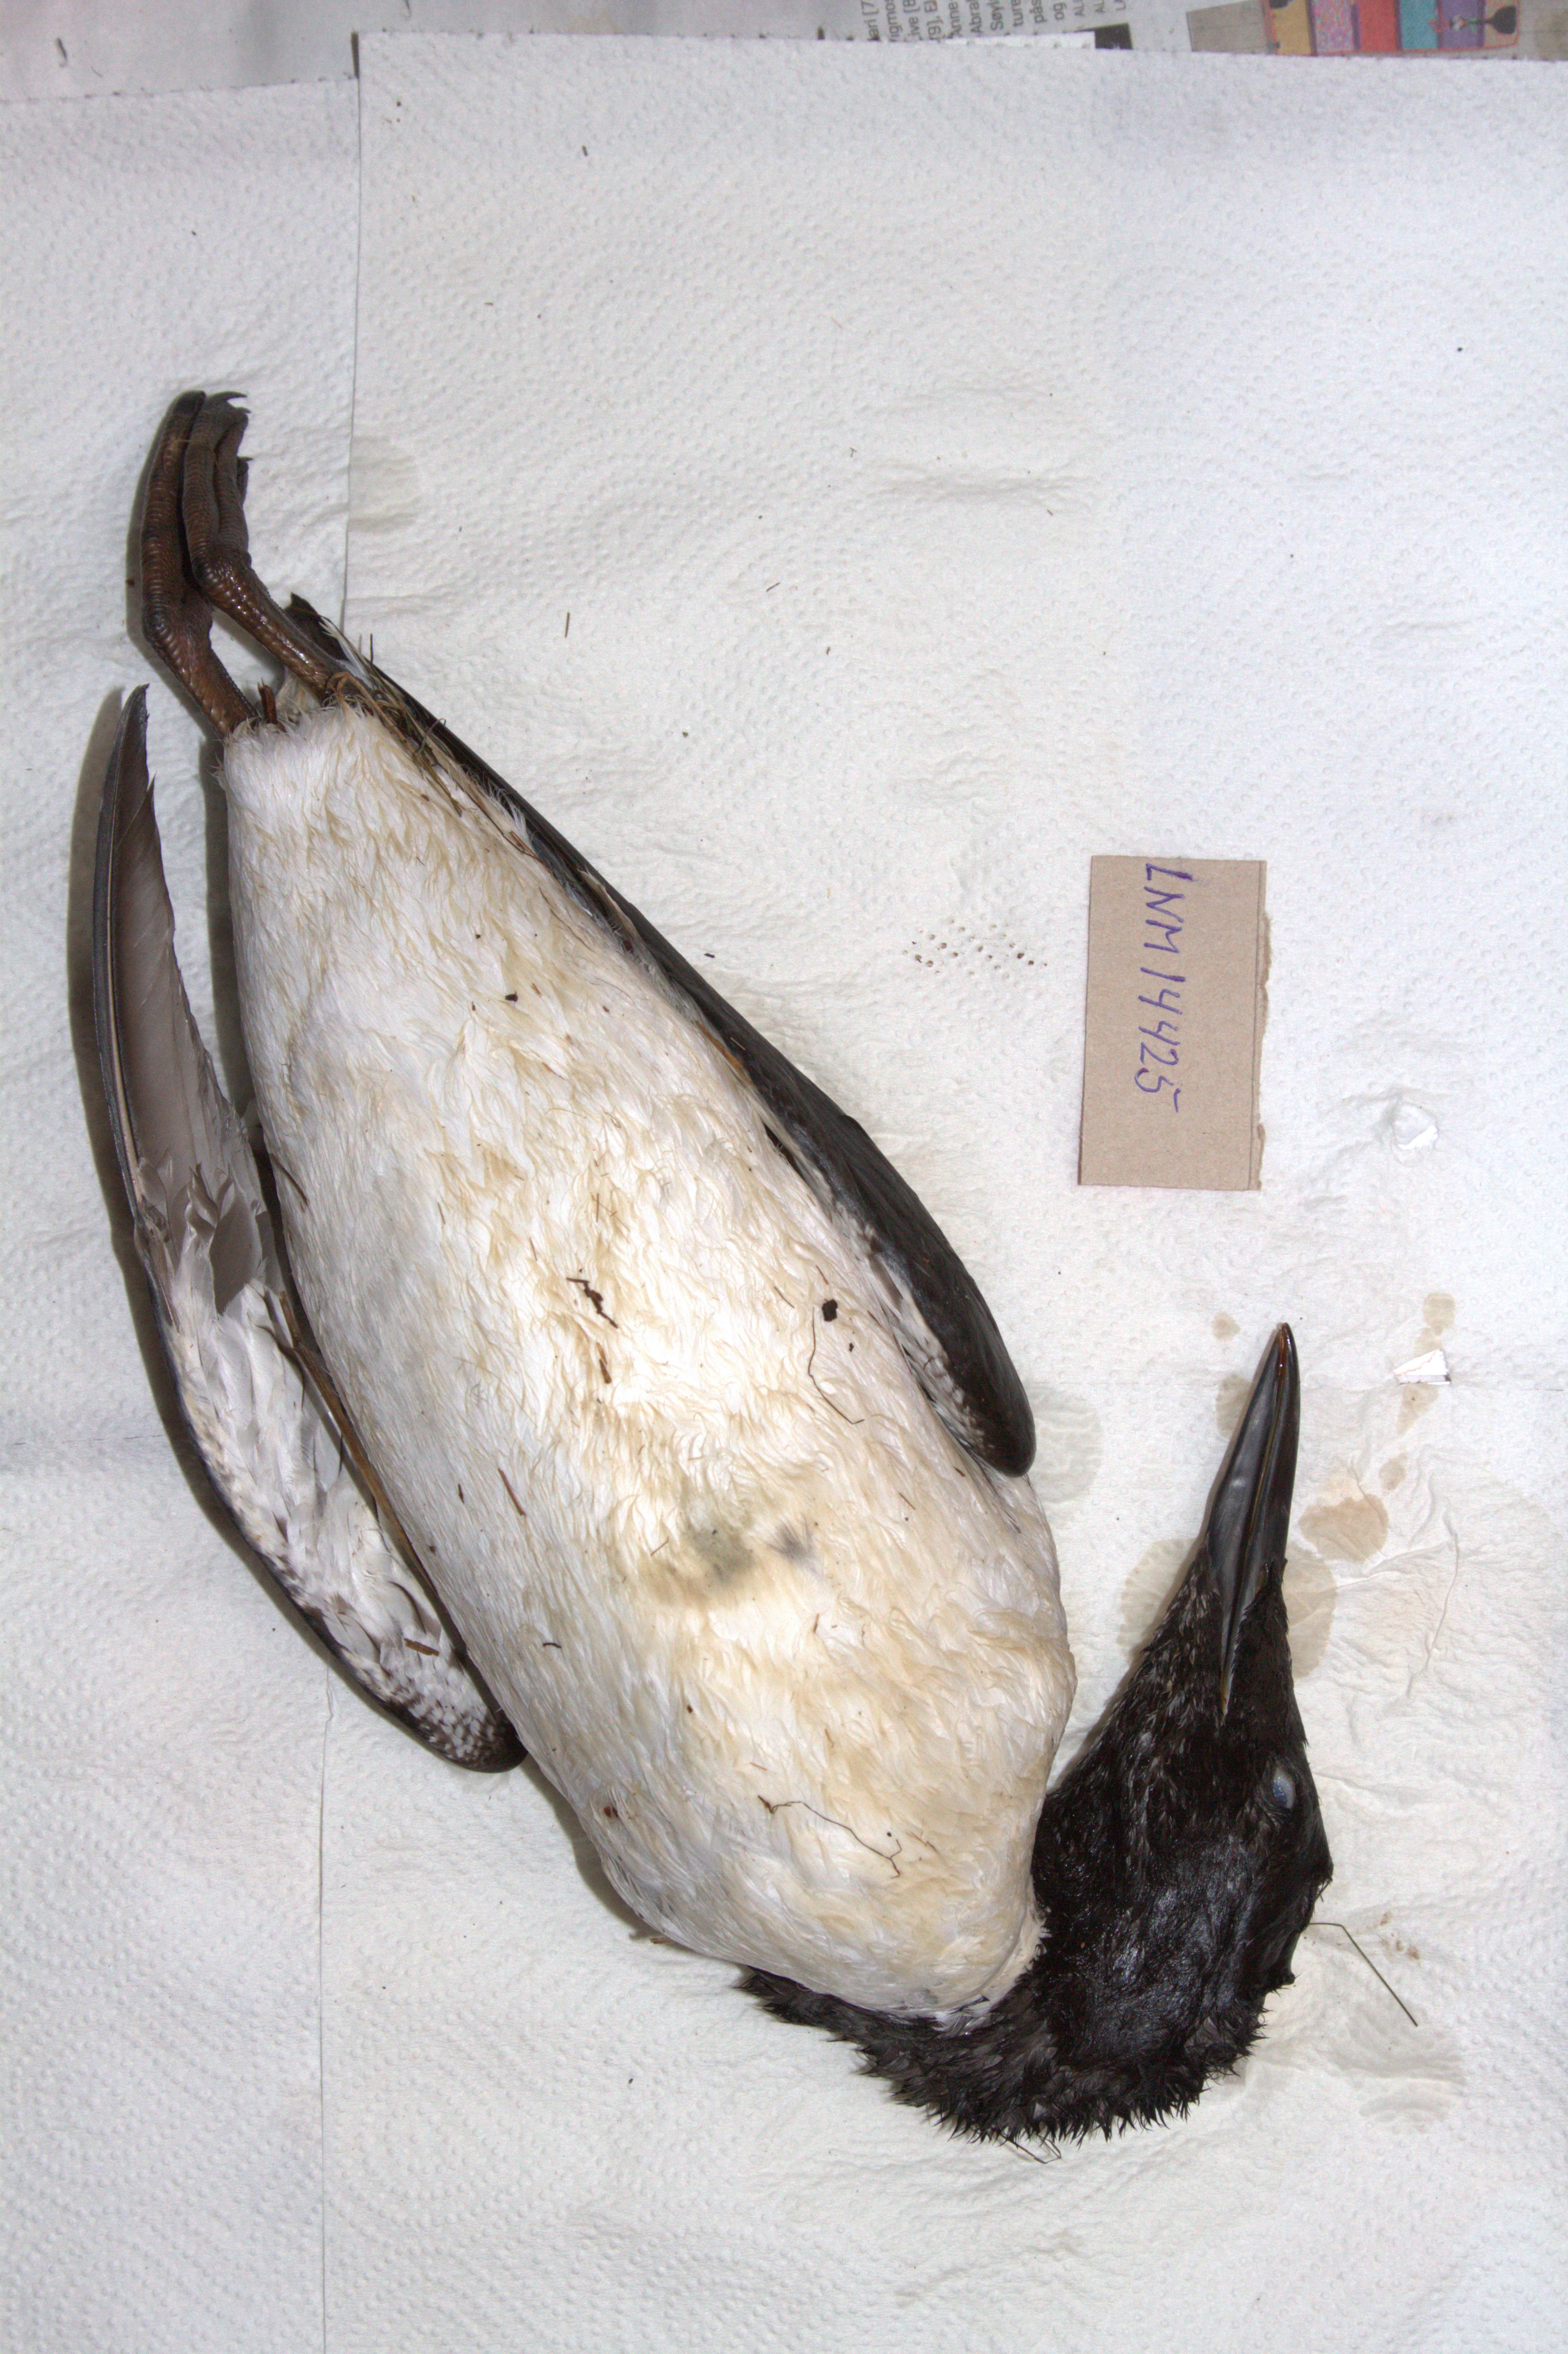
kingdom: Animalia
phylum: Chordata
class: Aves
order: Charadriiformes
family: Alcidae
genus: Uria
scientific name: Uria aalge
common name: Common murre
